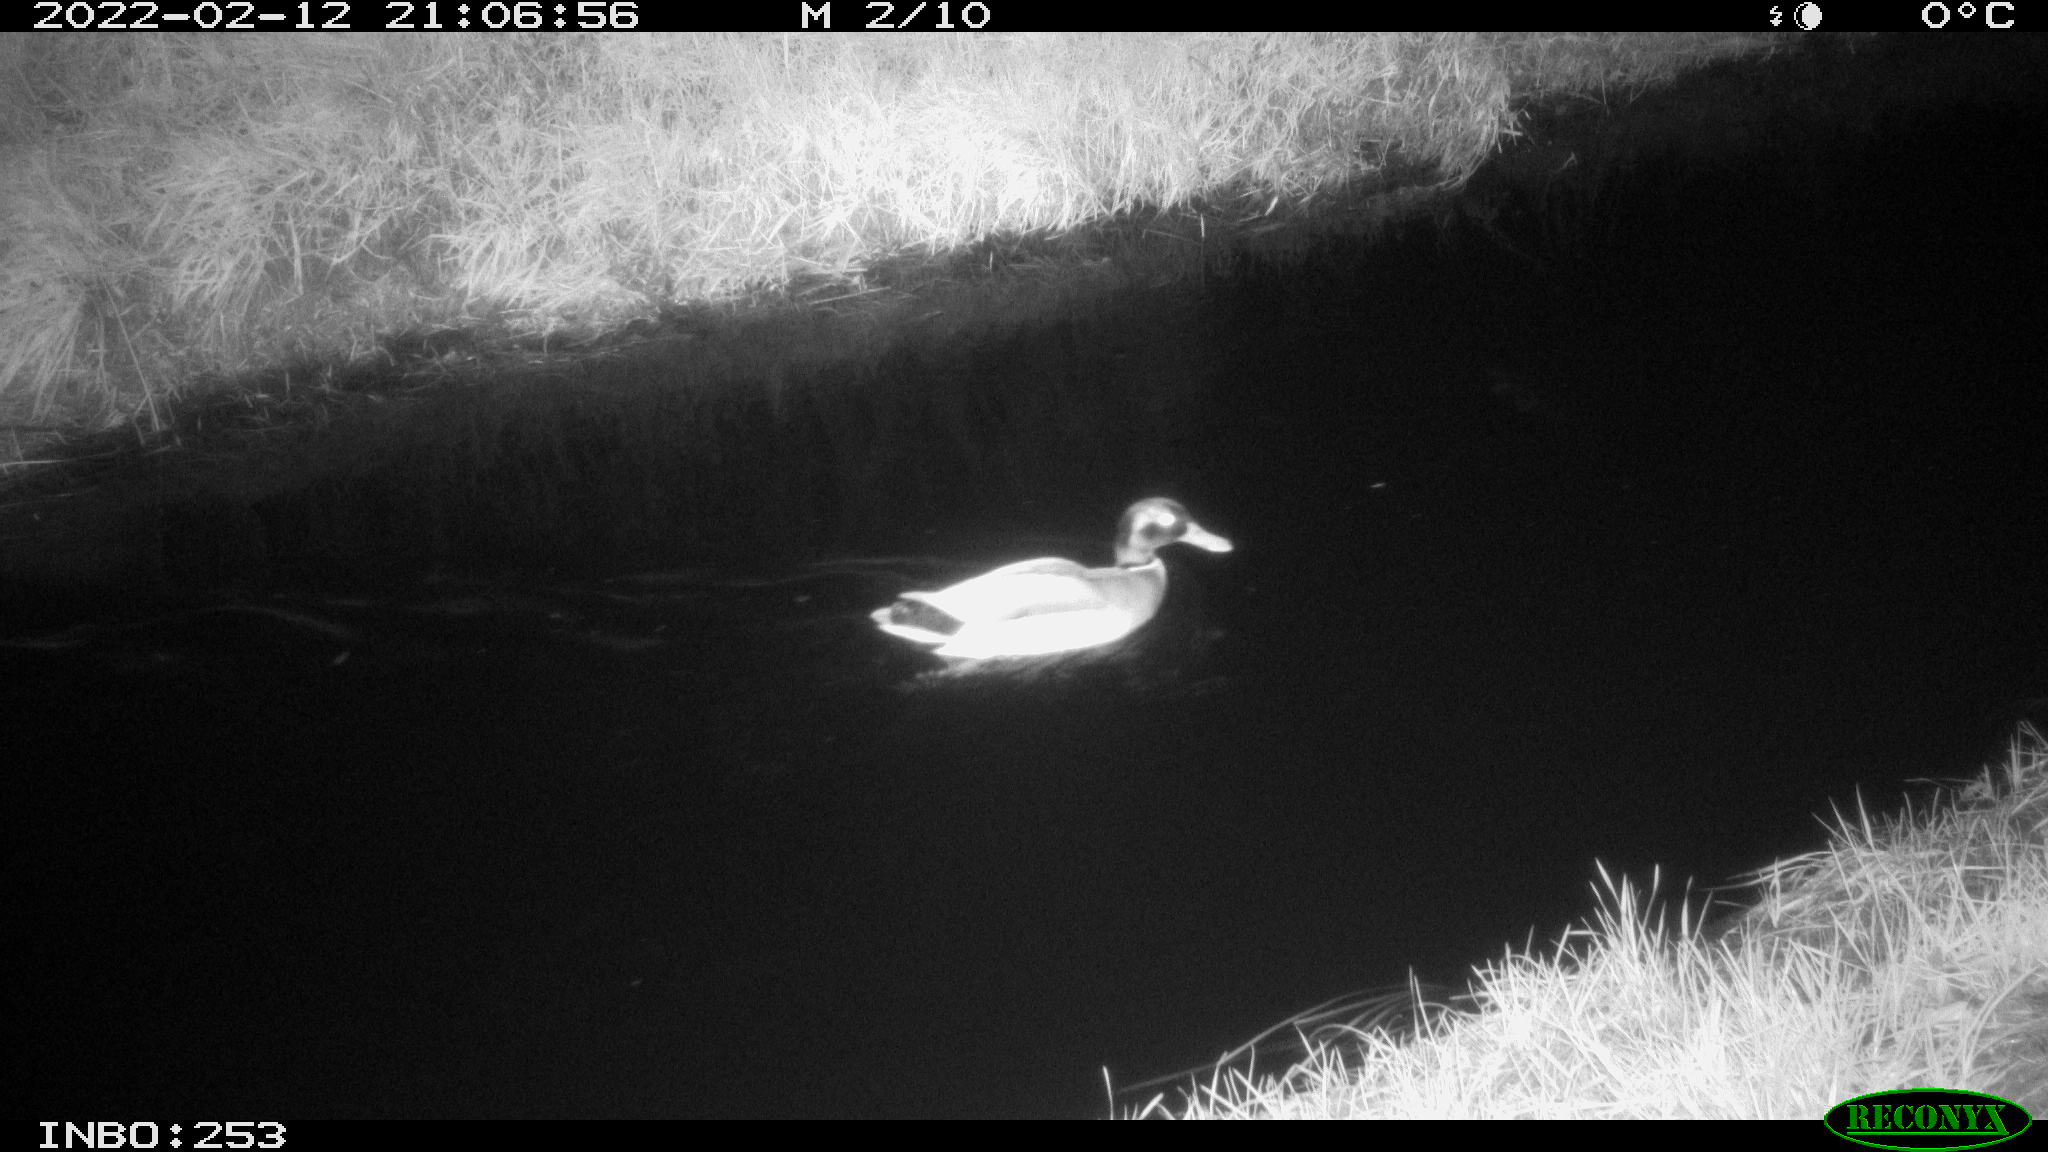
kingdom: Animalia
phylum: Chordata
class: Aves
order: Anseriformes
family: Anatidae
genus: Anas
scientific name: Anas platyrhynchos
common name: Mallard
